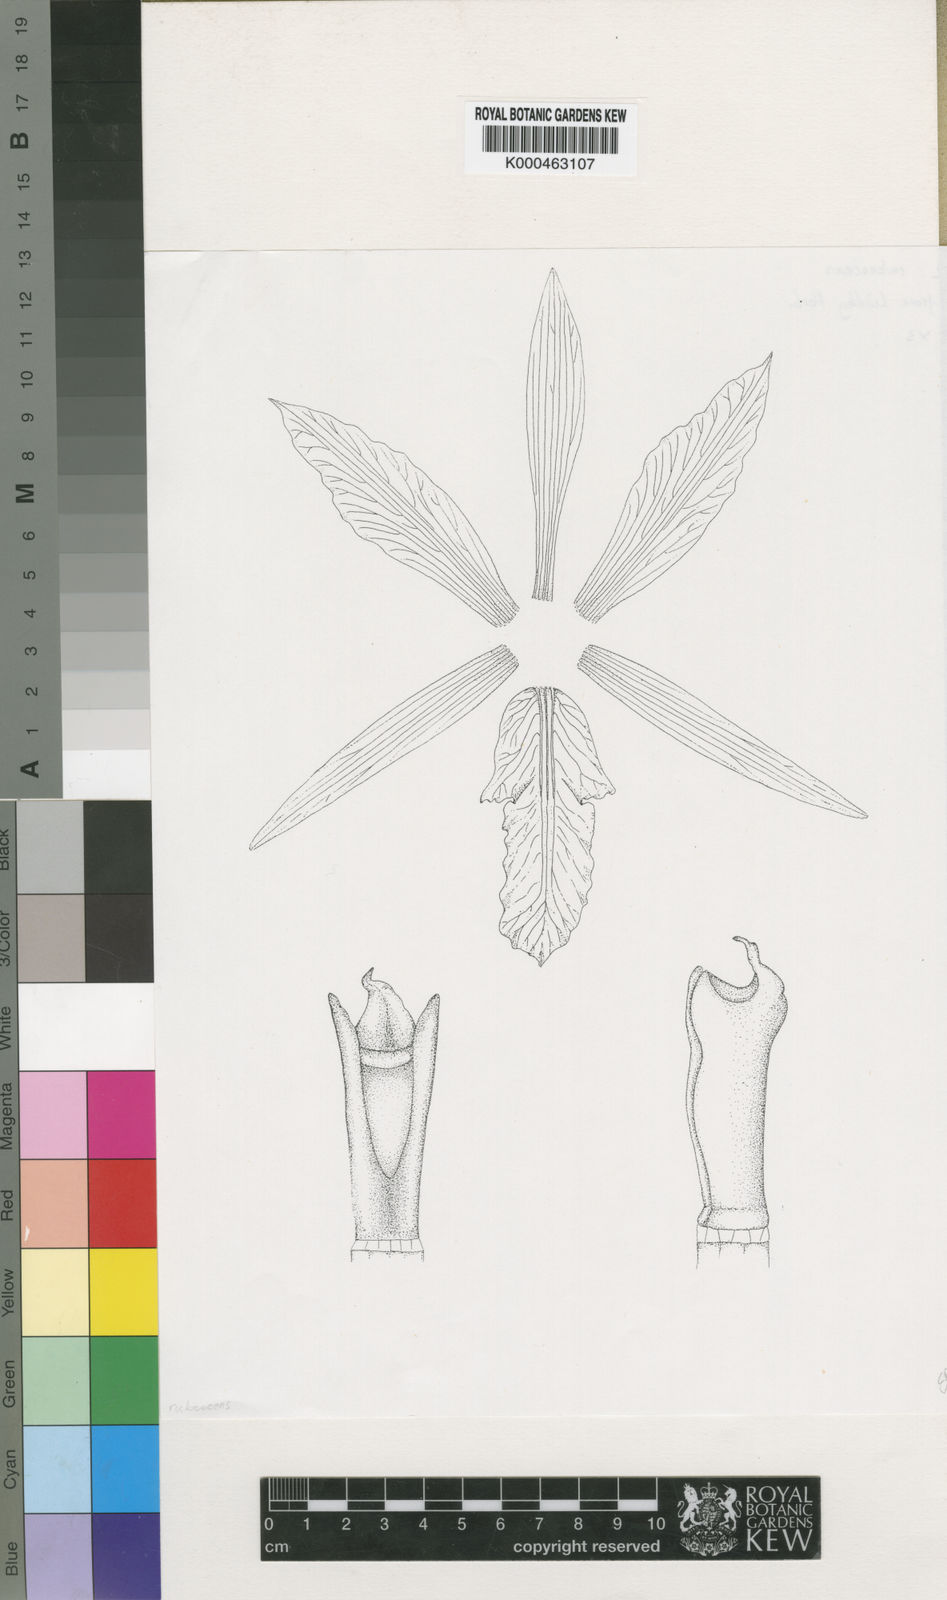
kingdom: Plantae
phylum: Tracheophyta
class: Liliopsida
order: Asparagales
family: Orchidaceae
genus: Laelia
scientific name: Laelia rubescens
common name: Pale laelia
